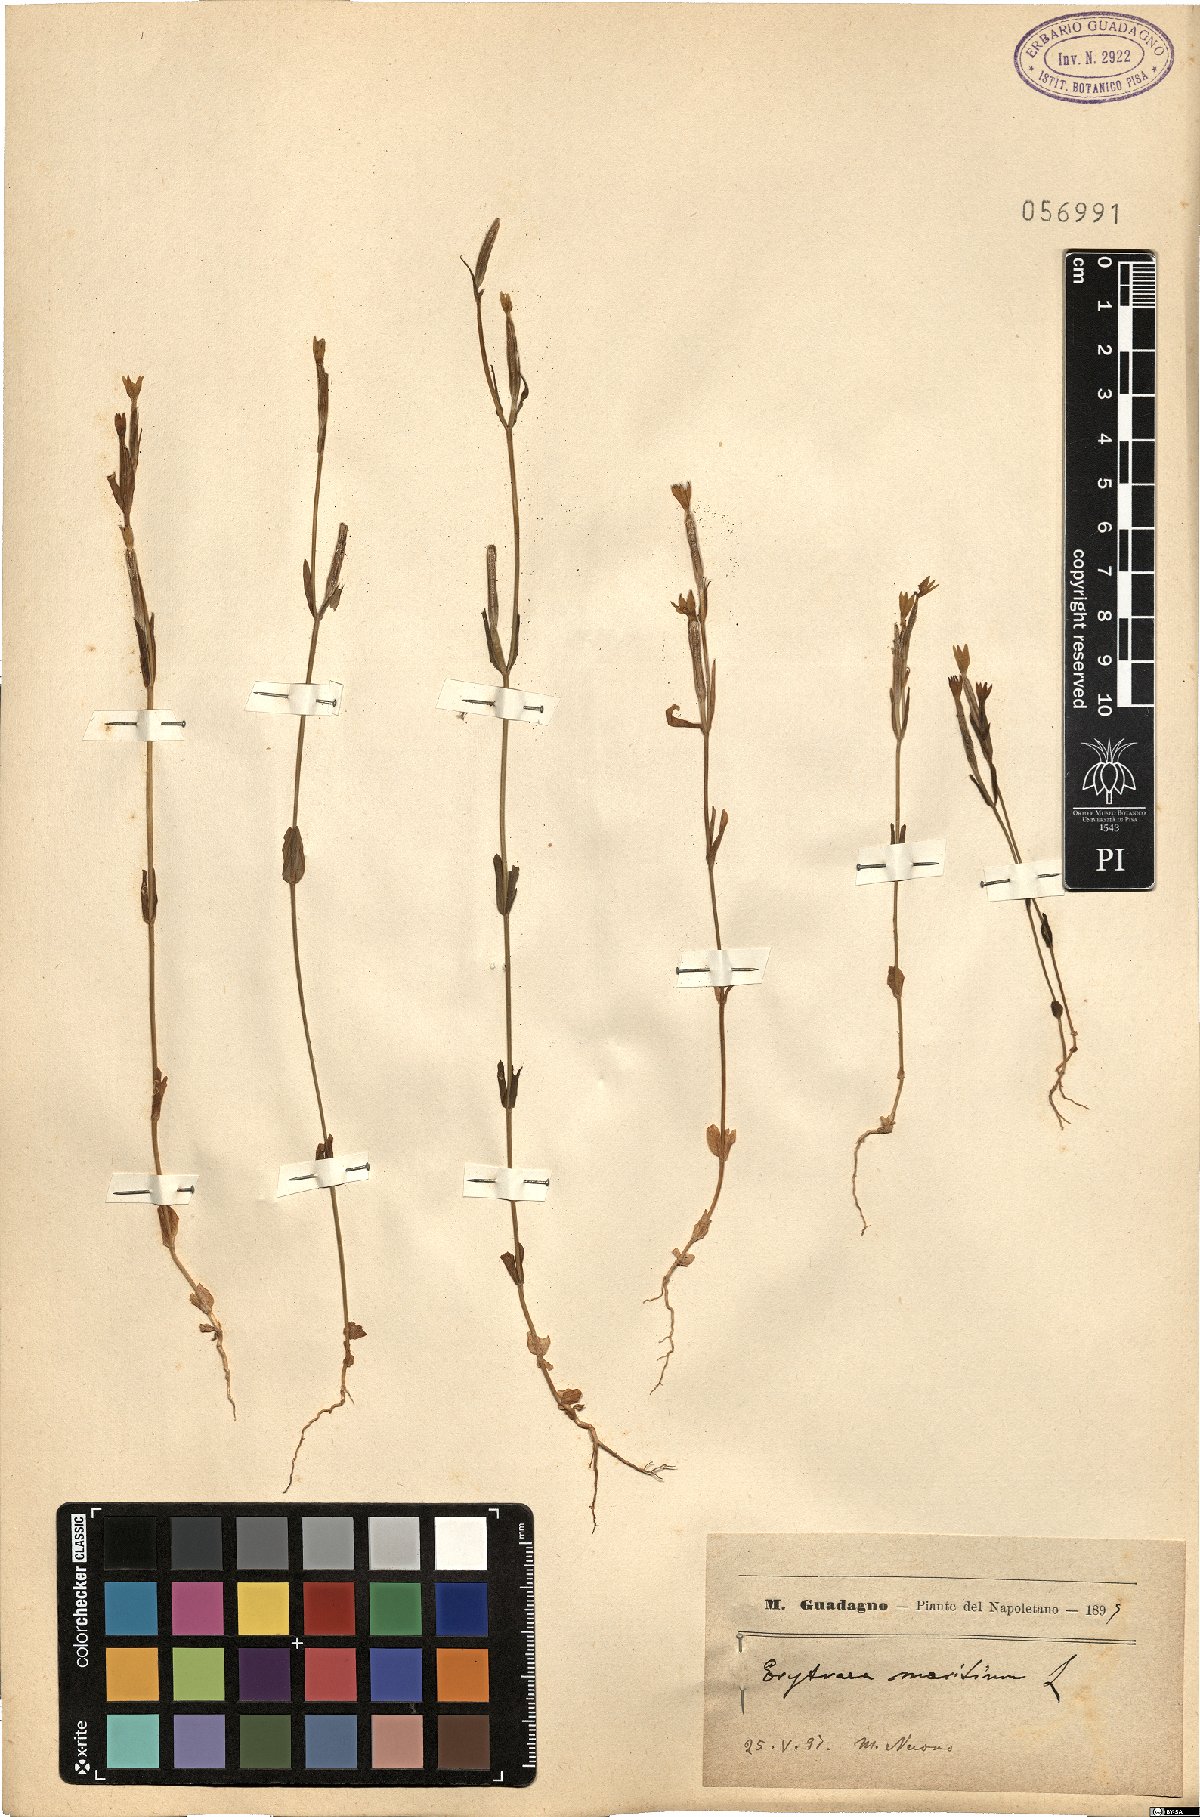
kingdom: Plantae
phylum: Tracheophyta
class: Magnoliopsida
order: Gentianales
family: Gentianaceae
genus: Centaurium
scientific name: Centaurium maritimum
